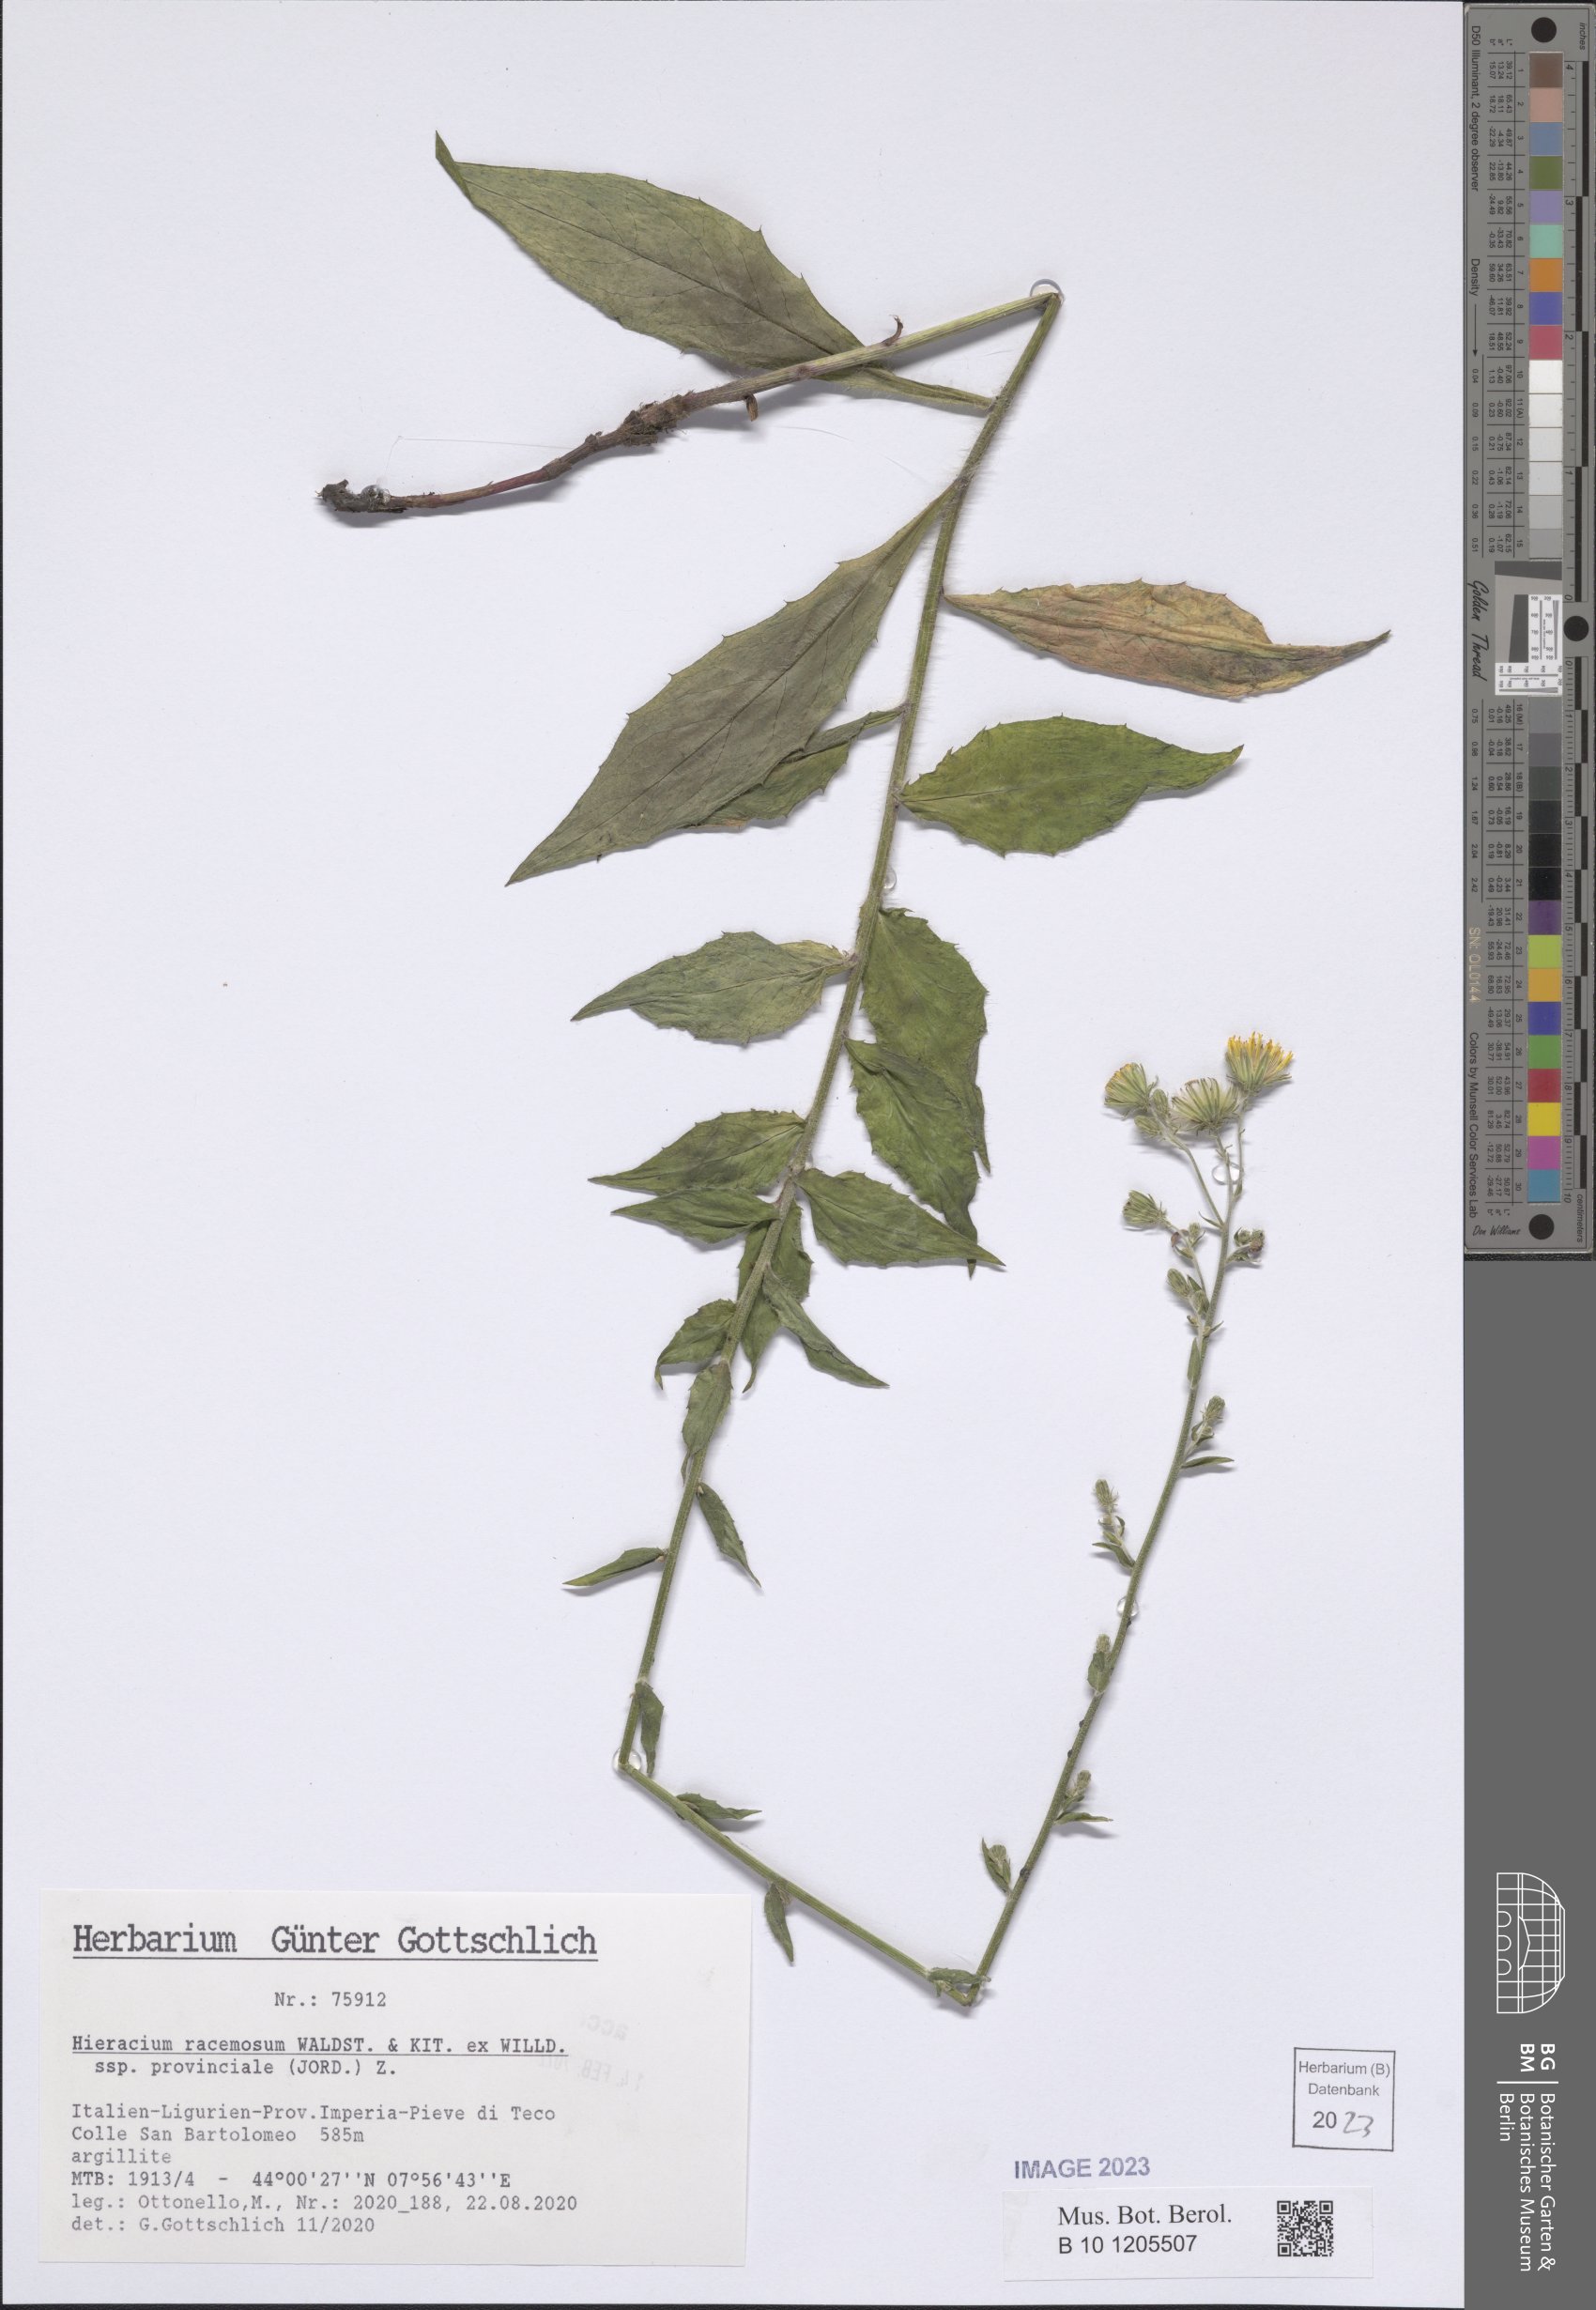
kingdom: Plantae
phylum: Tracheophyta
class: Magnoliopsida
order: Asterales
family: Asteraceae
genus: Hieracium
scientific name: Hieracium racemosum
